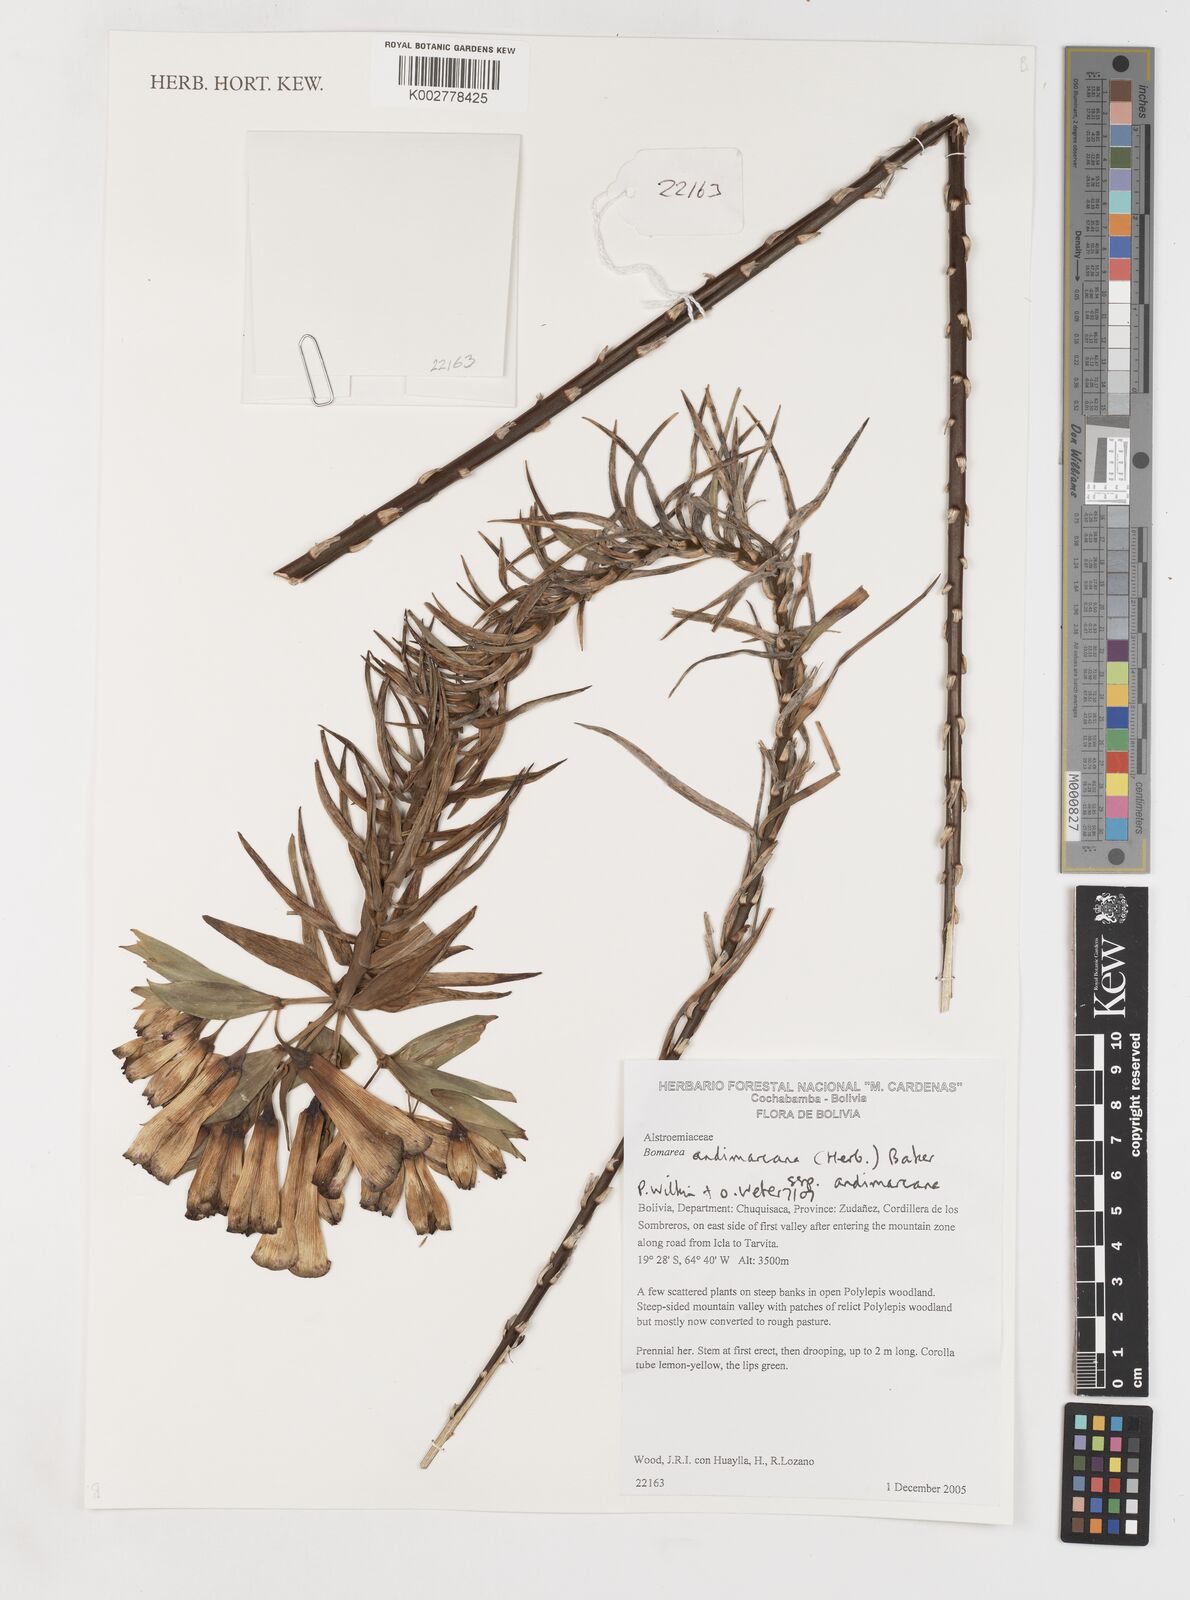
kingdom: Plantae
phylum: Tracheophyta
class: Liliopsida
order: Liliales
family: Alstroemeriaceae
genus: Bomarea
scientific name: Bomarea andimarcana
